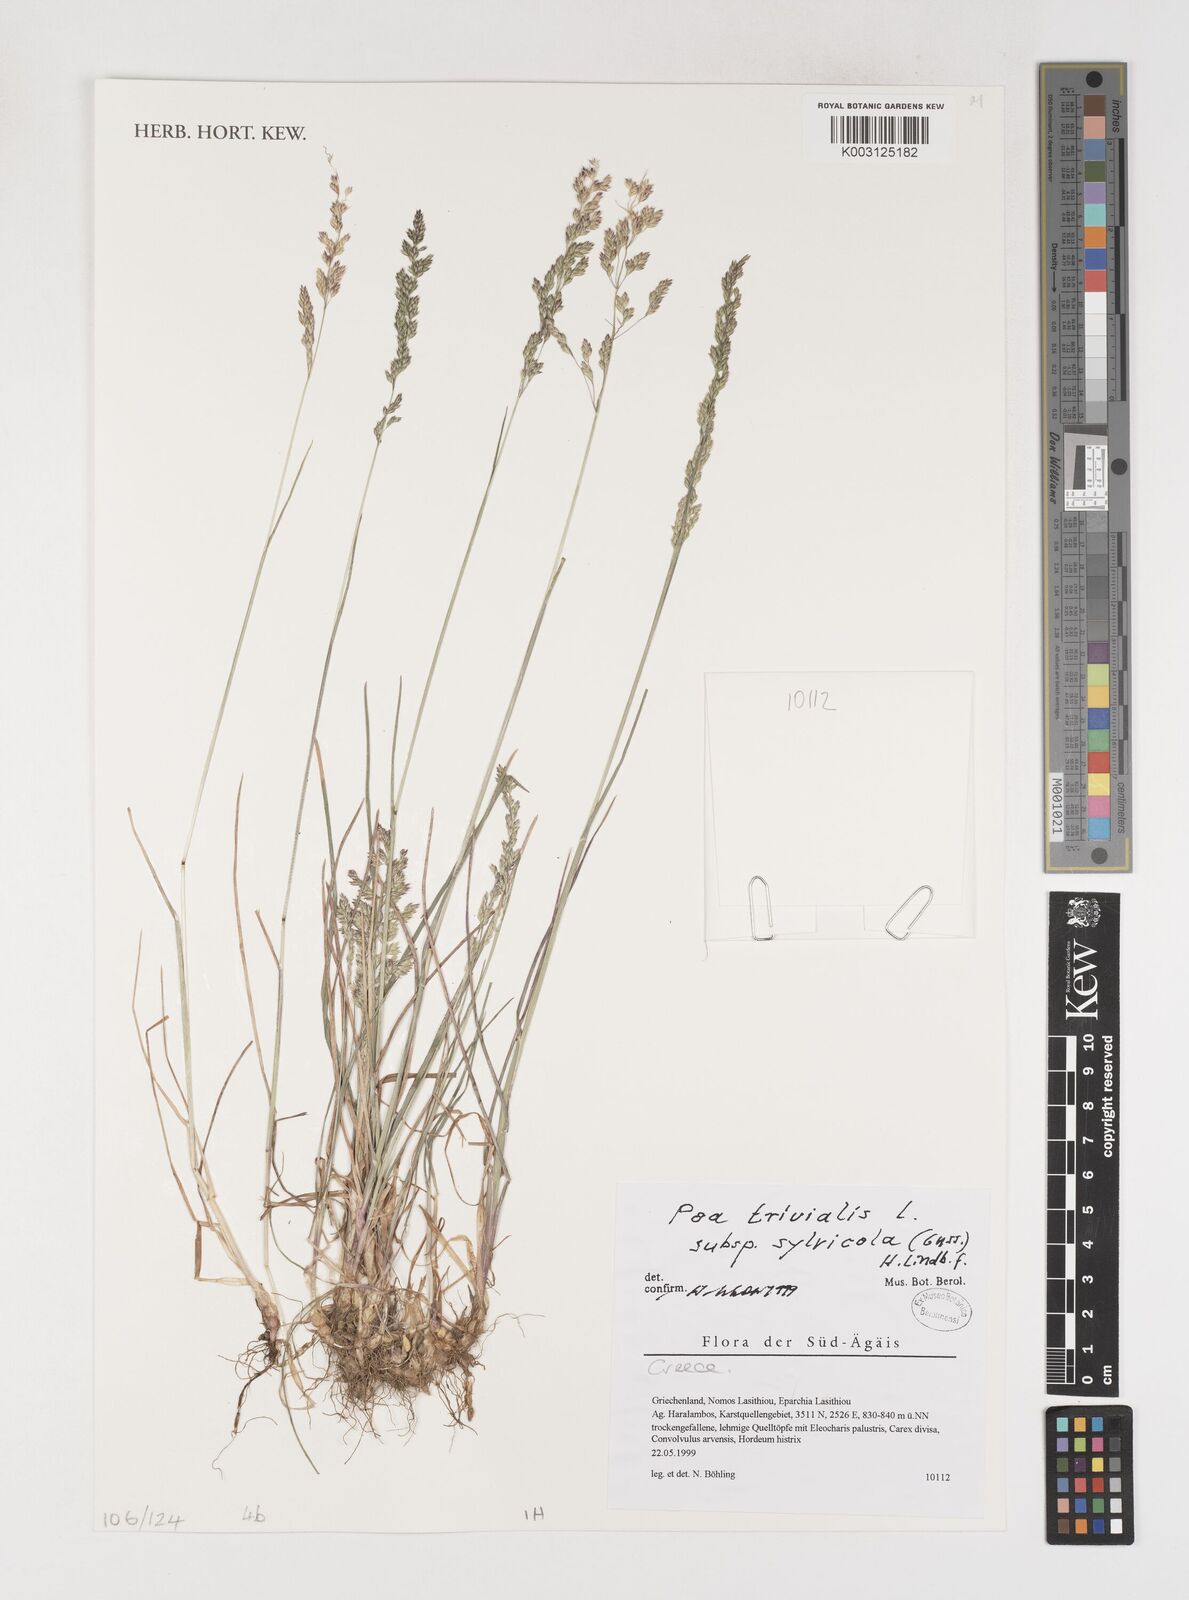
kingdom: Plantae
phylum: Tracheophyta
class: Liliopsida
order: Poales
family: Poaceae
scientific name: Poaceae
